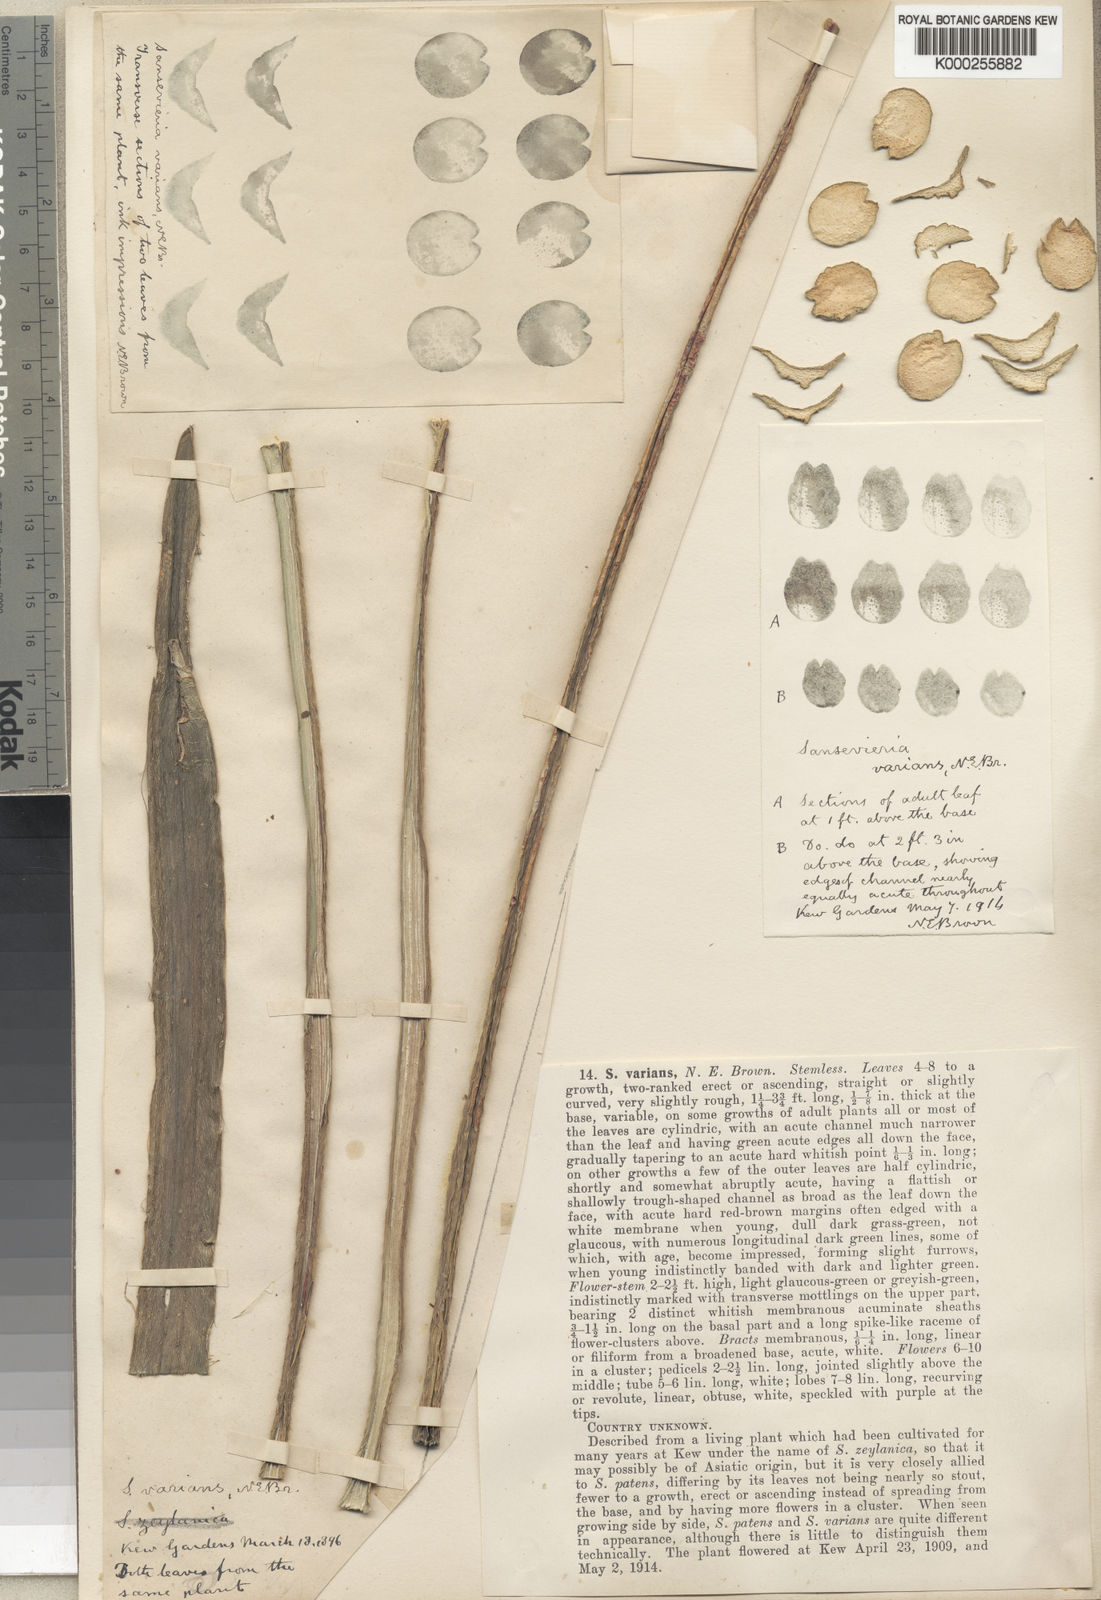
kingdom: Plantae
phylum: Tracheophyta
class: Liliopsida
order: Asparagales
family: Asparagaceae
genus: Dracaena
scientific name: Dracaena varians
